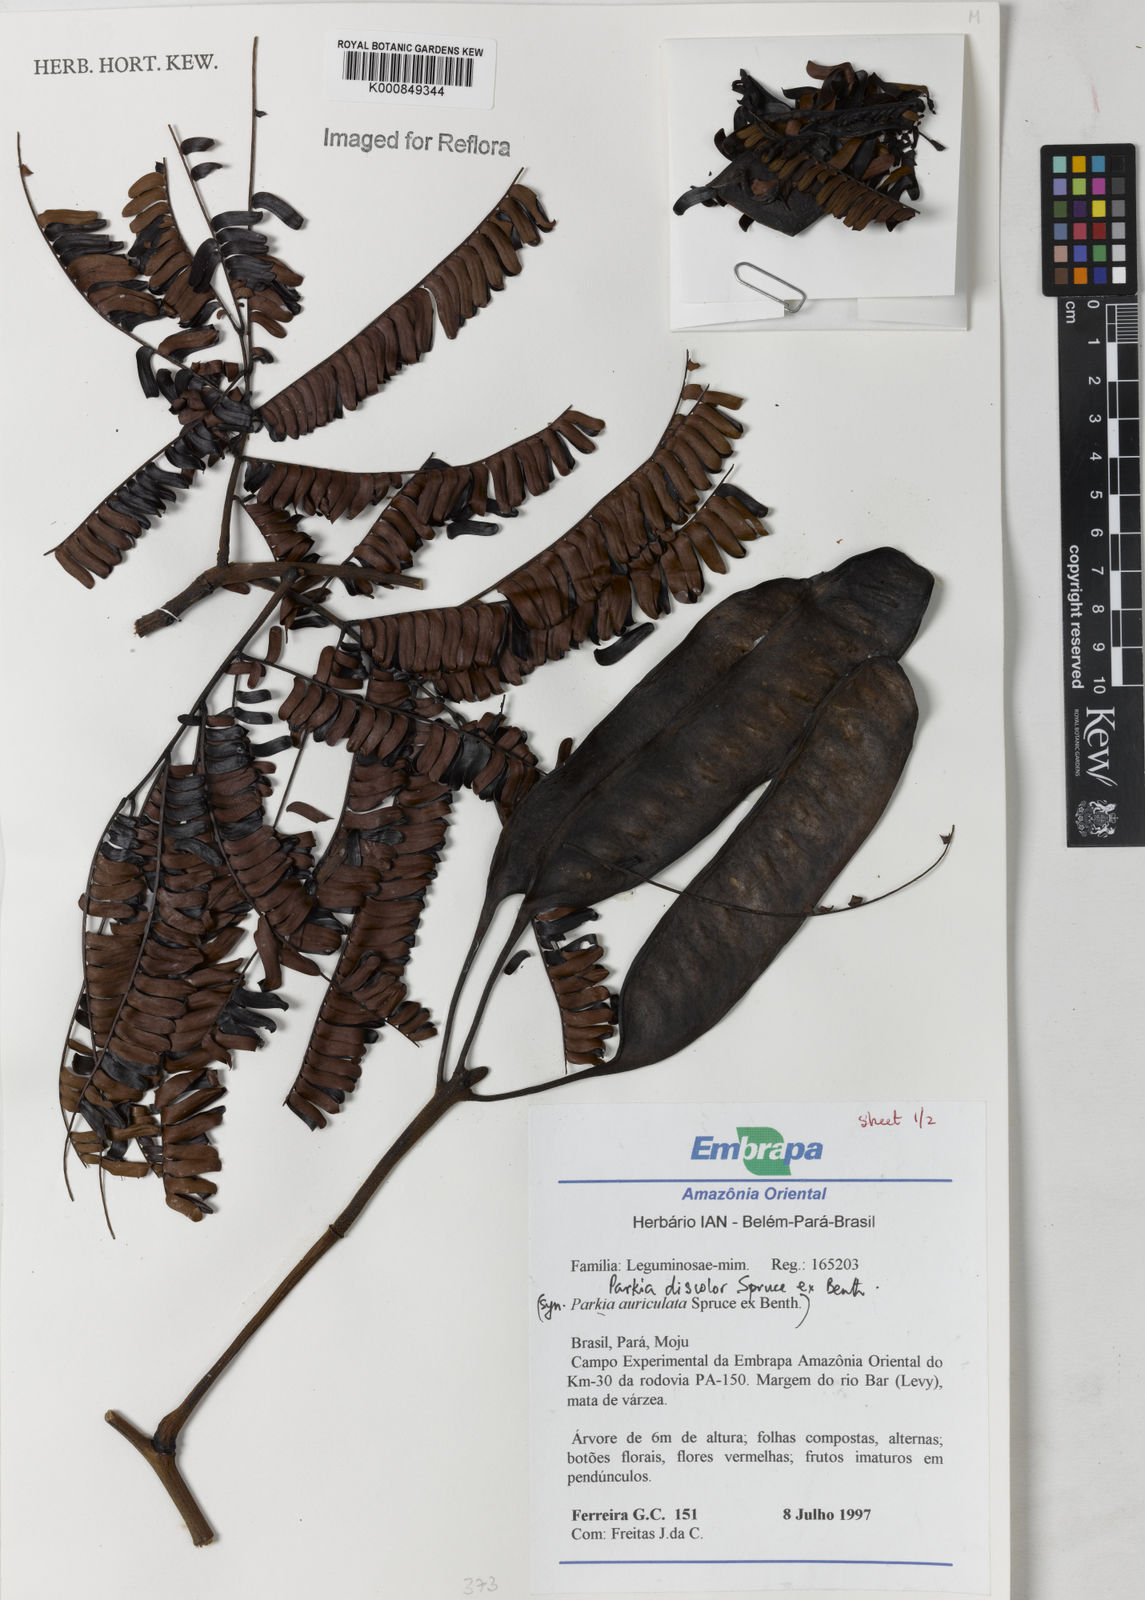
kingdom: Plantae
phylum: Tracheophyta
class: Magnoliopsida
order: Fabales
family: Fabaceae
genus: Parkia
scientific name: Parkia discolor
